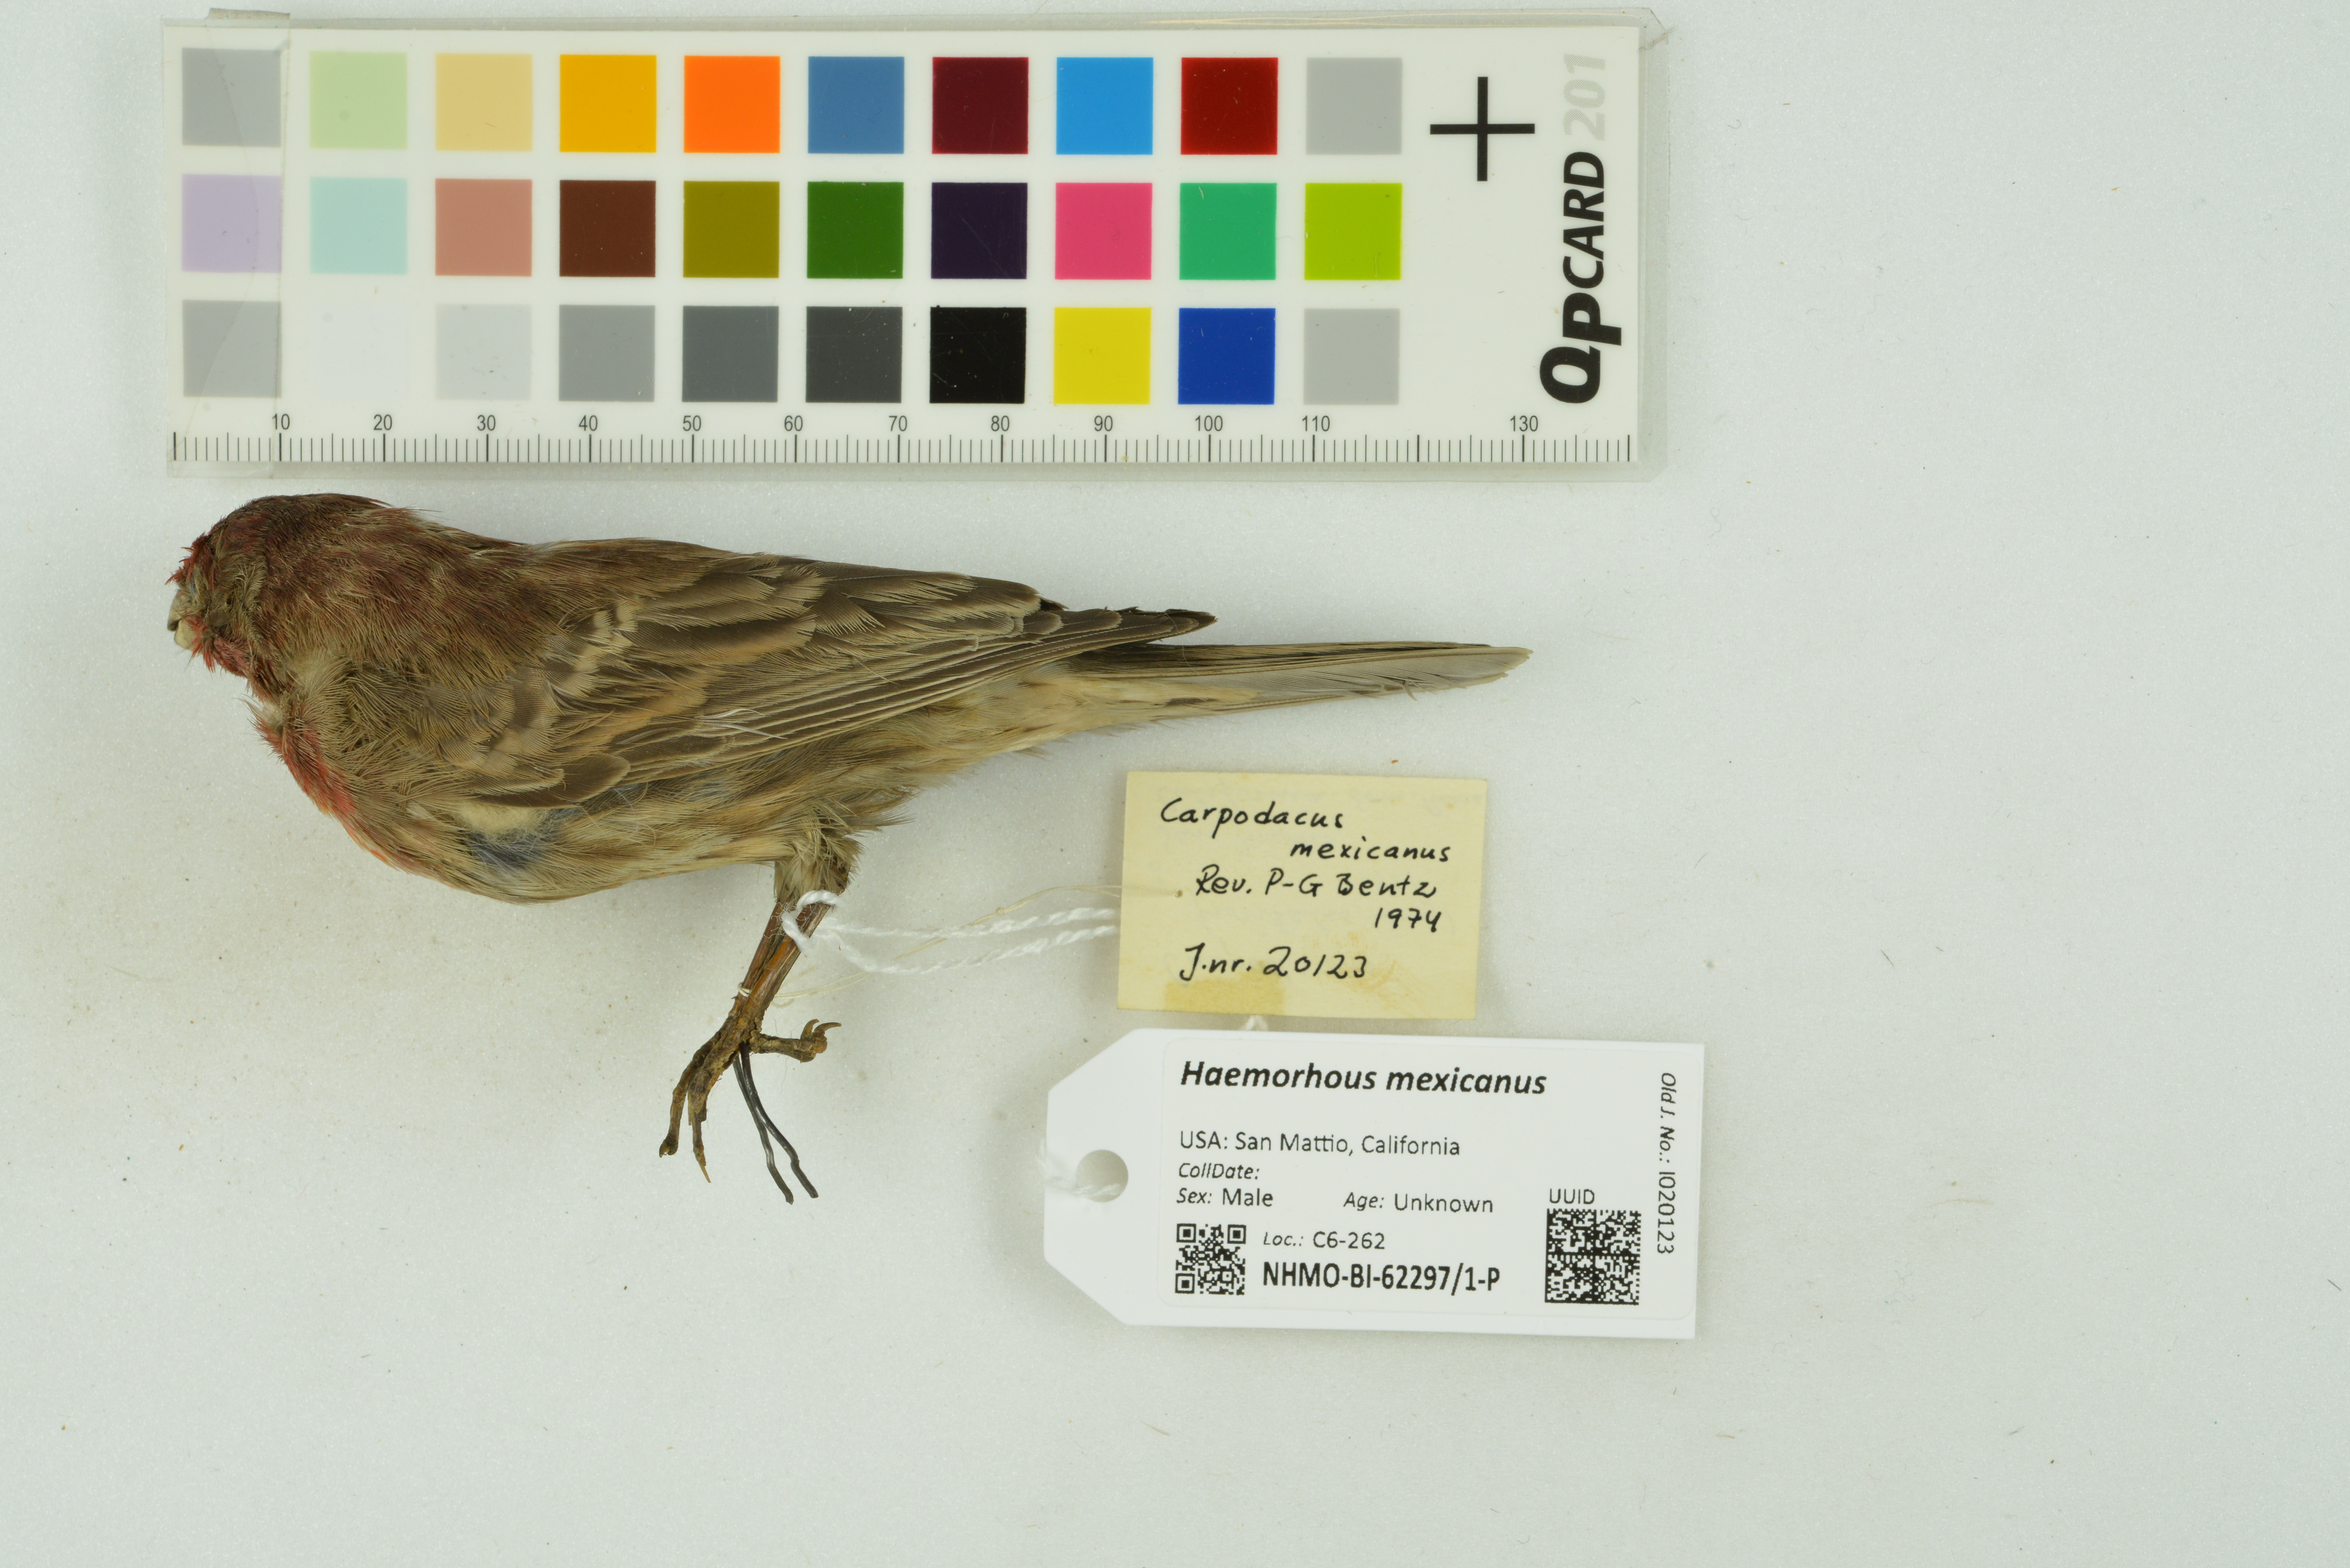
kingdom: Animalia
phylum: Chordata
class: Aves
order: Passeriformes
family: Fringillidae
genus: Haemorhous
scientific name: Haemorhous mexicanus
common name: House finch
